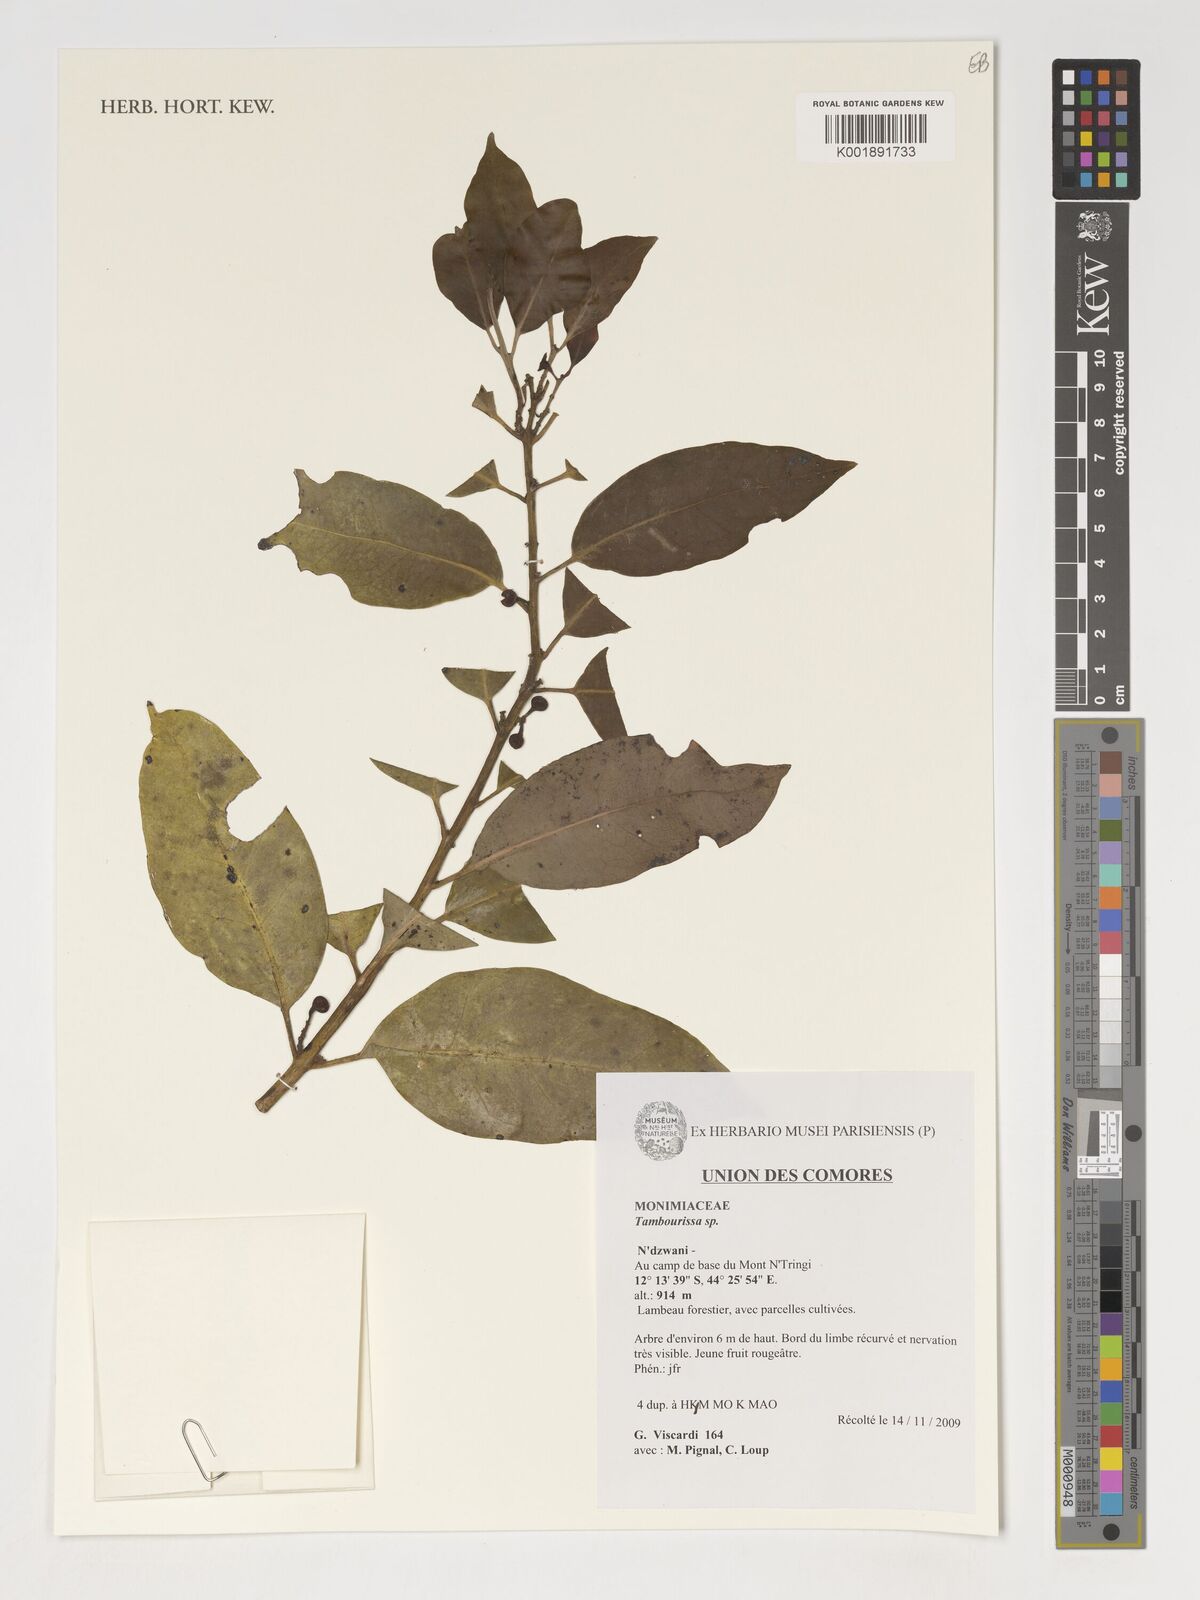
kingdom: Plantae
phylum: Tracheophyta
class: Magnoliopsida
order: Laurales
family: Monimiaceae
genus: Tambourissa
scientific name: Tambourissa
